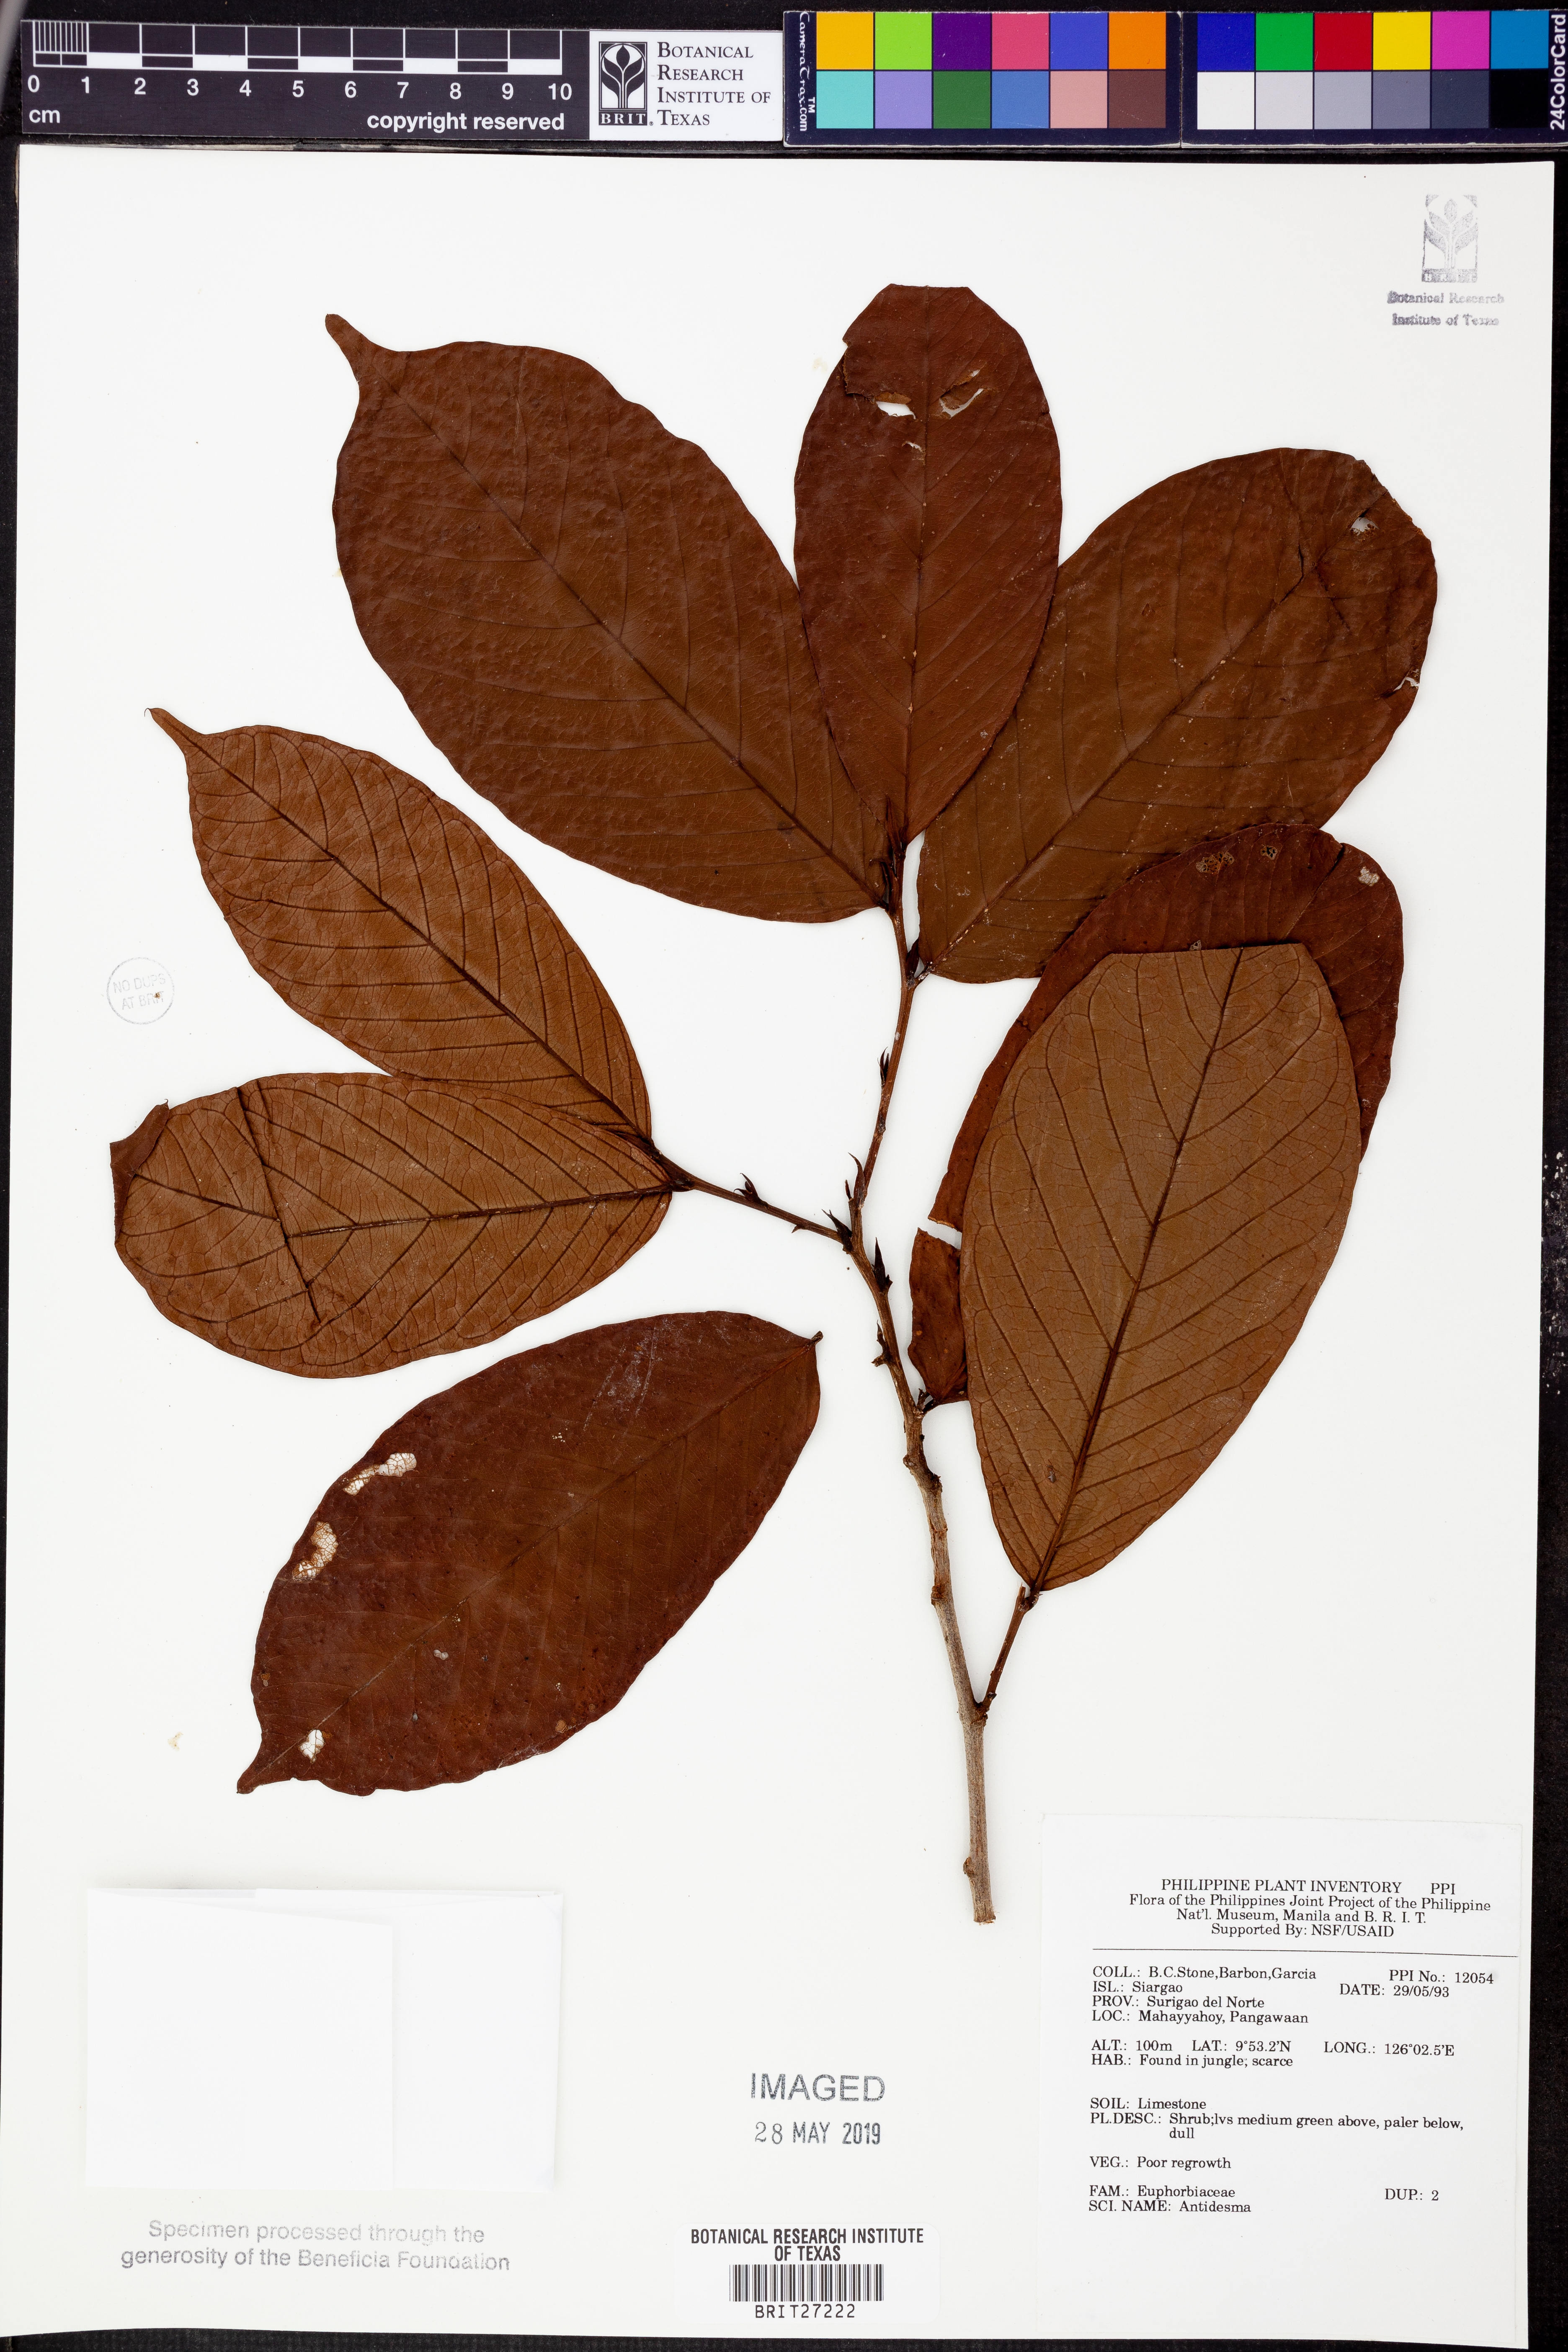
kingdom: Plantae
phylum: Tracheophyta
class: Magnoliopsida
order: Malpighiales
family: Phyllanthaceae
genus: Antidesma
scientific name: Antidesma
